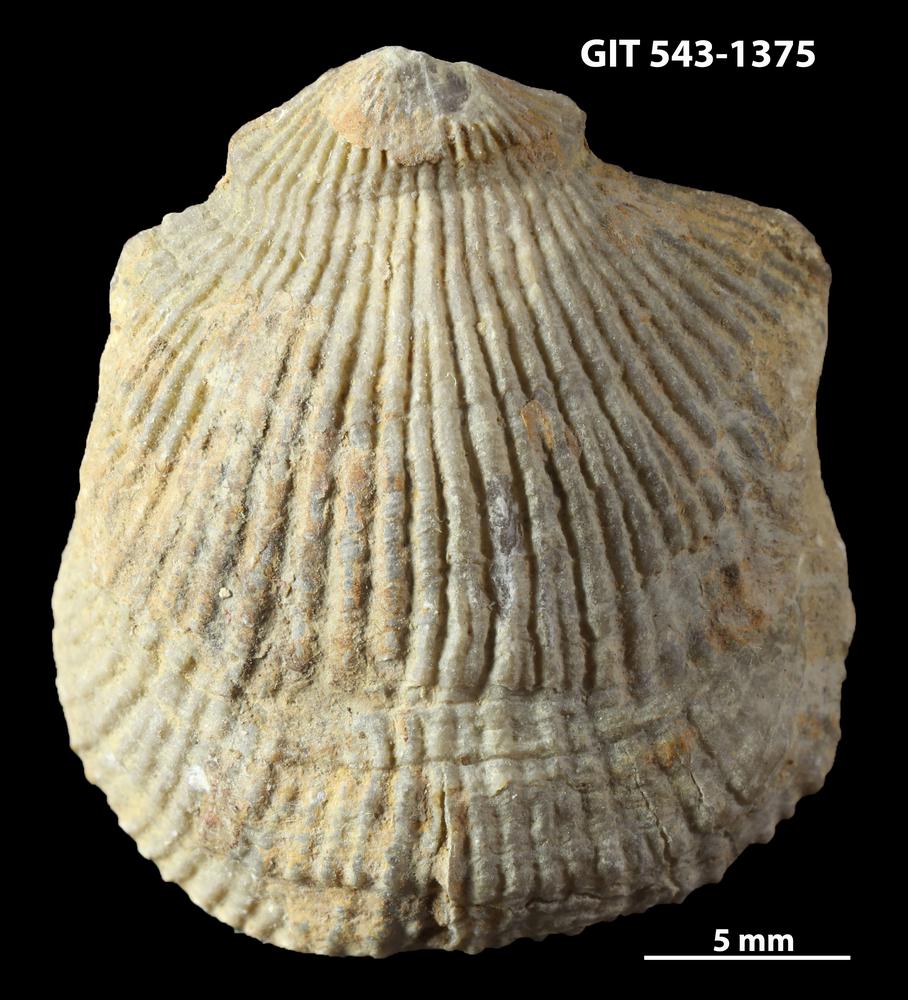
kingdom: Animalia
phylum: Brachiopoda
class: Rhynchonellata
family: Clitambonitidae
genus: Vellamo
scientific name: Vellamo
